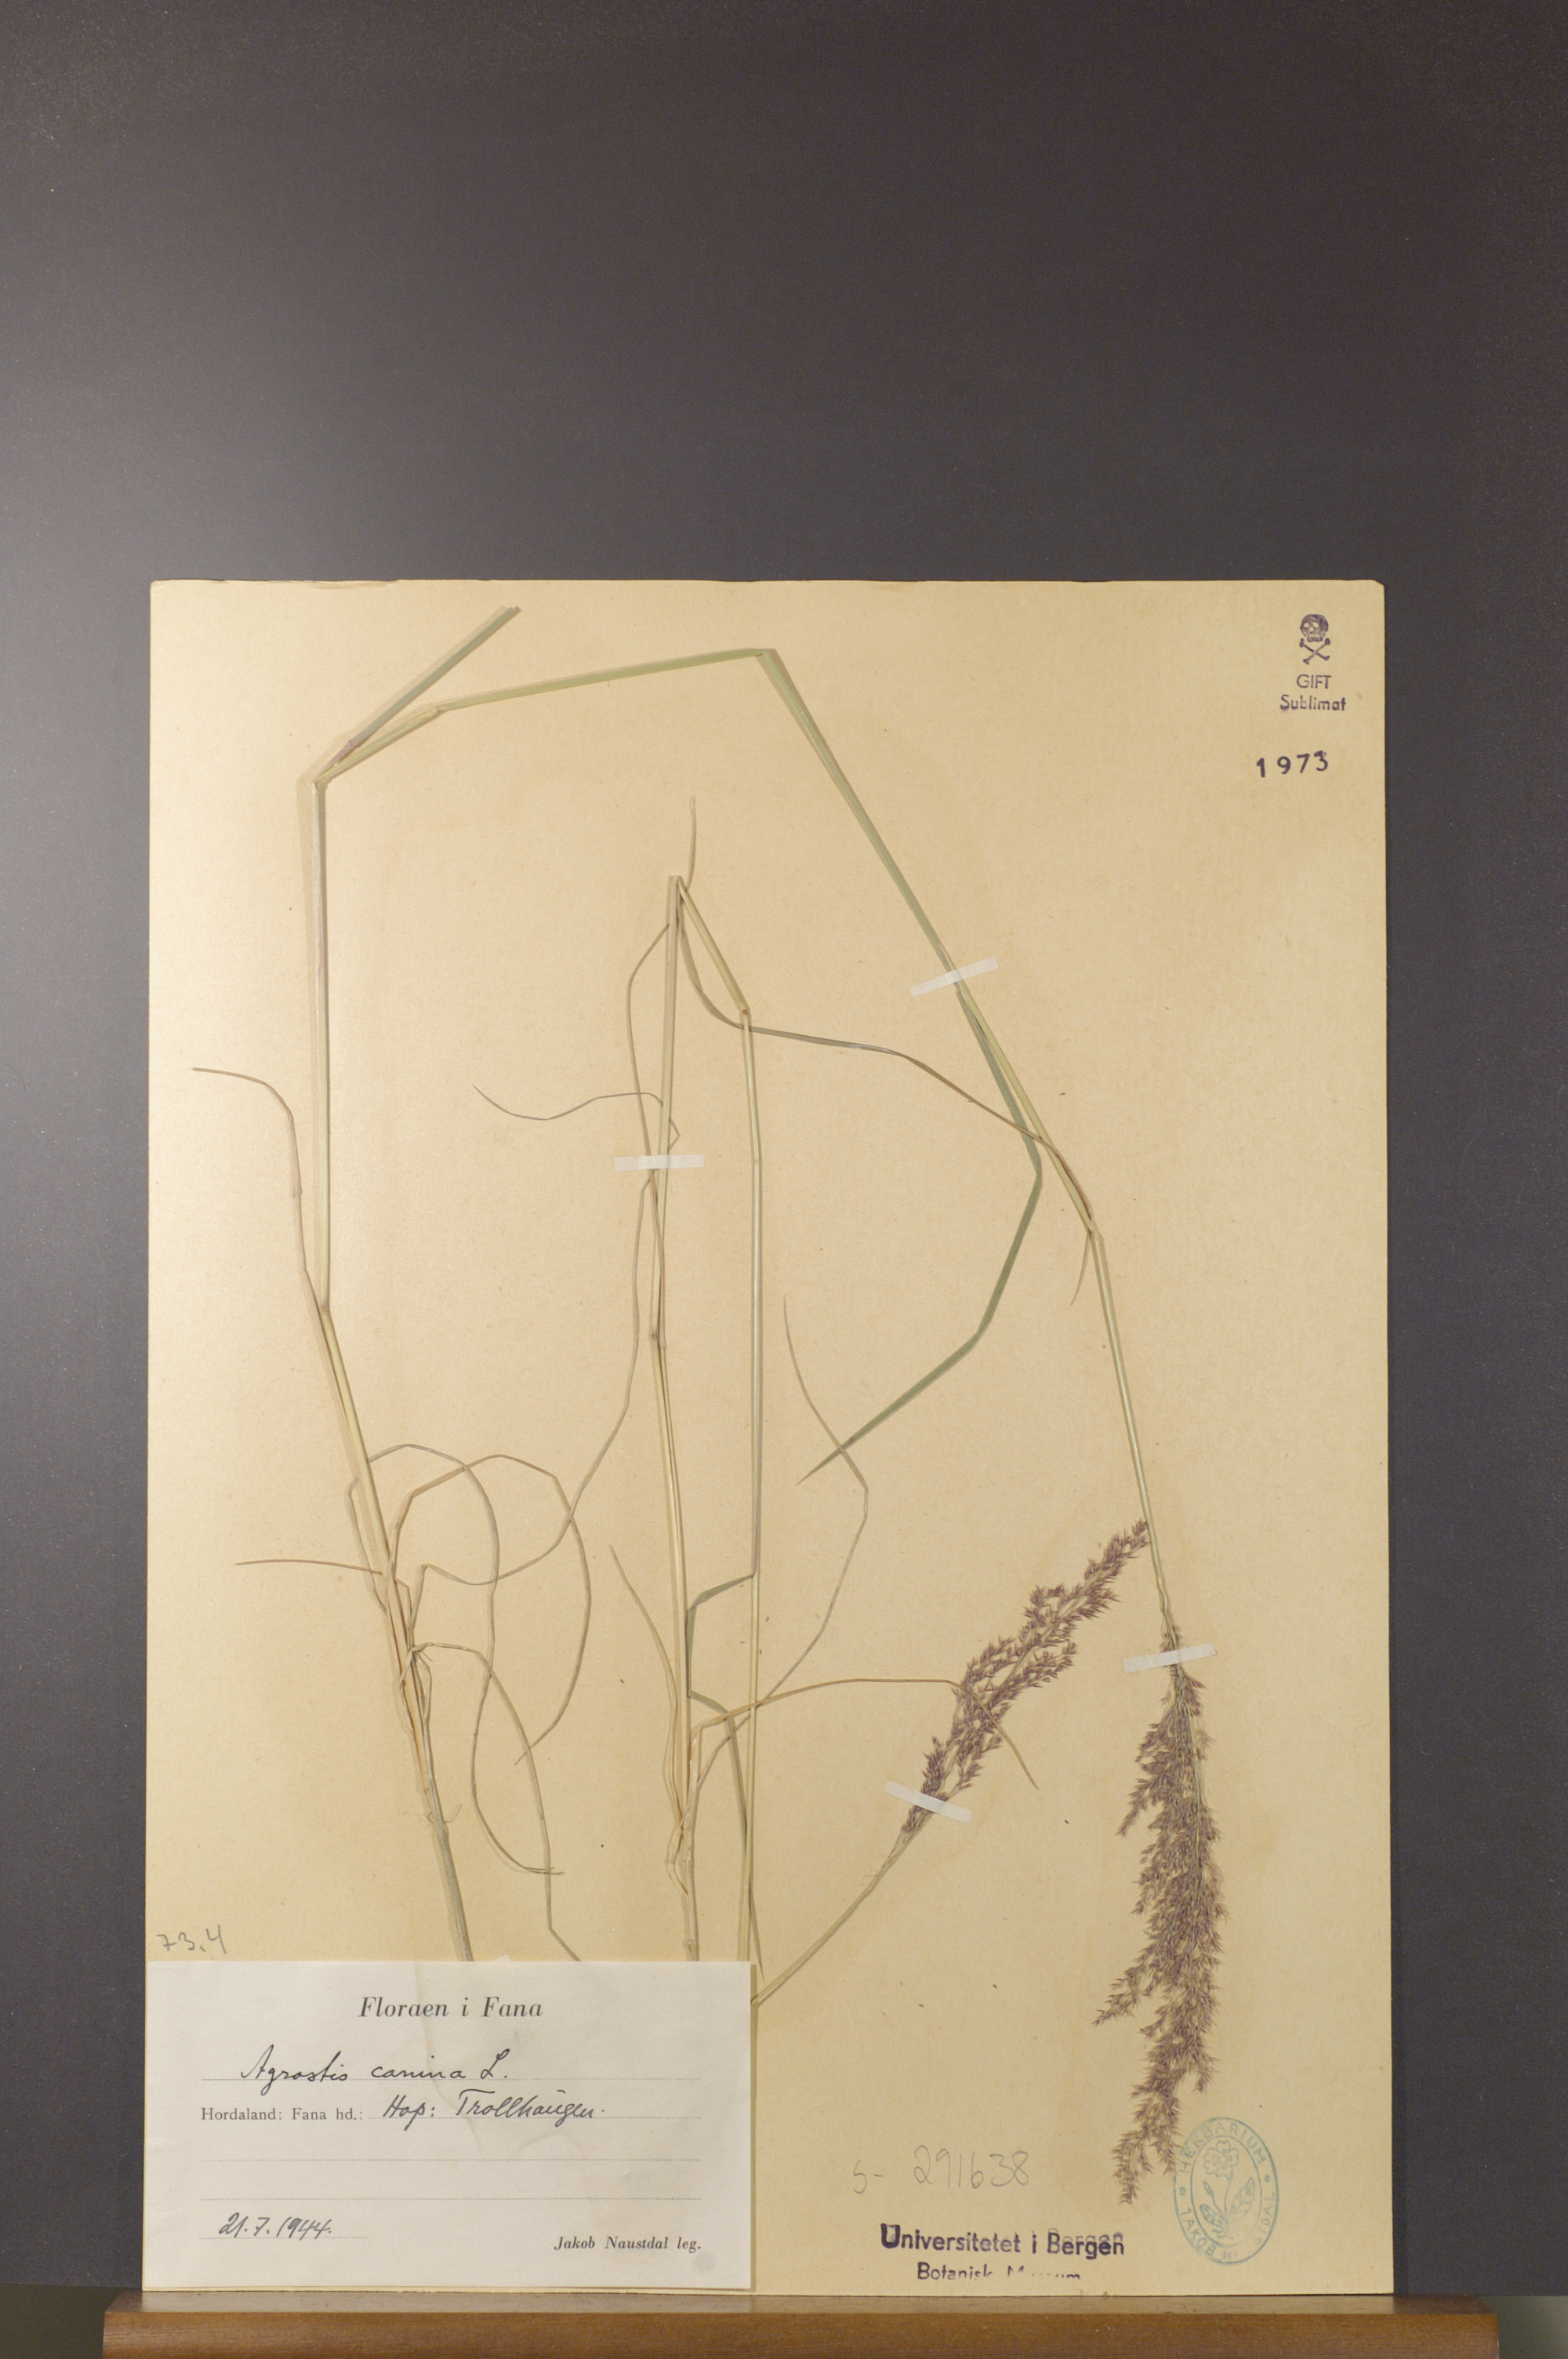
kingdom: Plantae
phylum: Tracheophyta
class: Liliopsida
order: Poales
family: Poaceae
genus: Agrostis
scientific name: Agrostis canina
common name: Velvet bent
